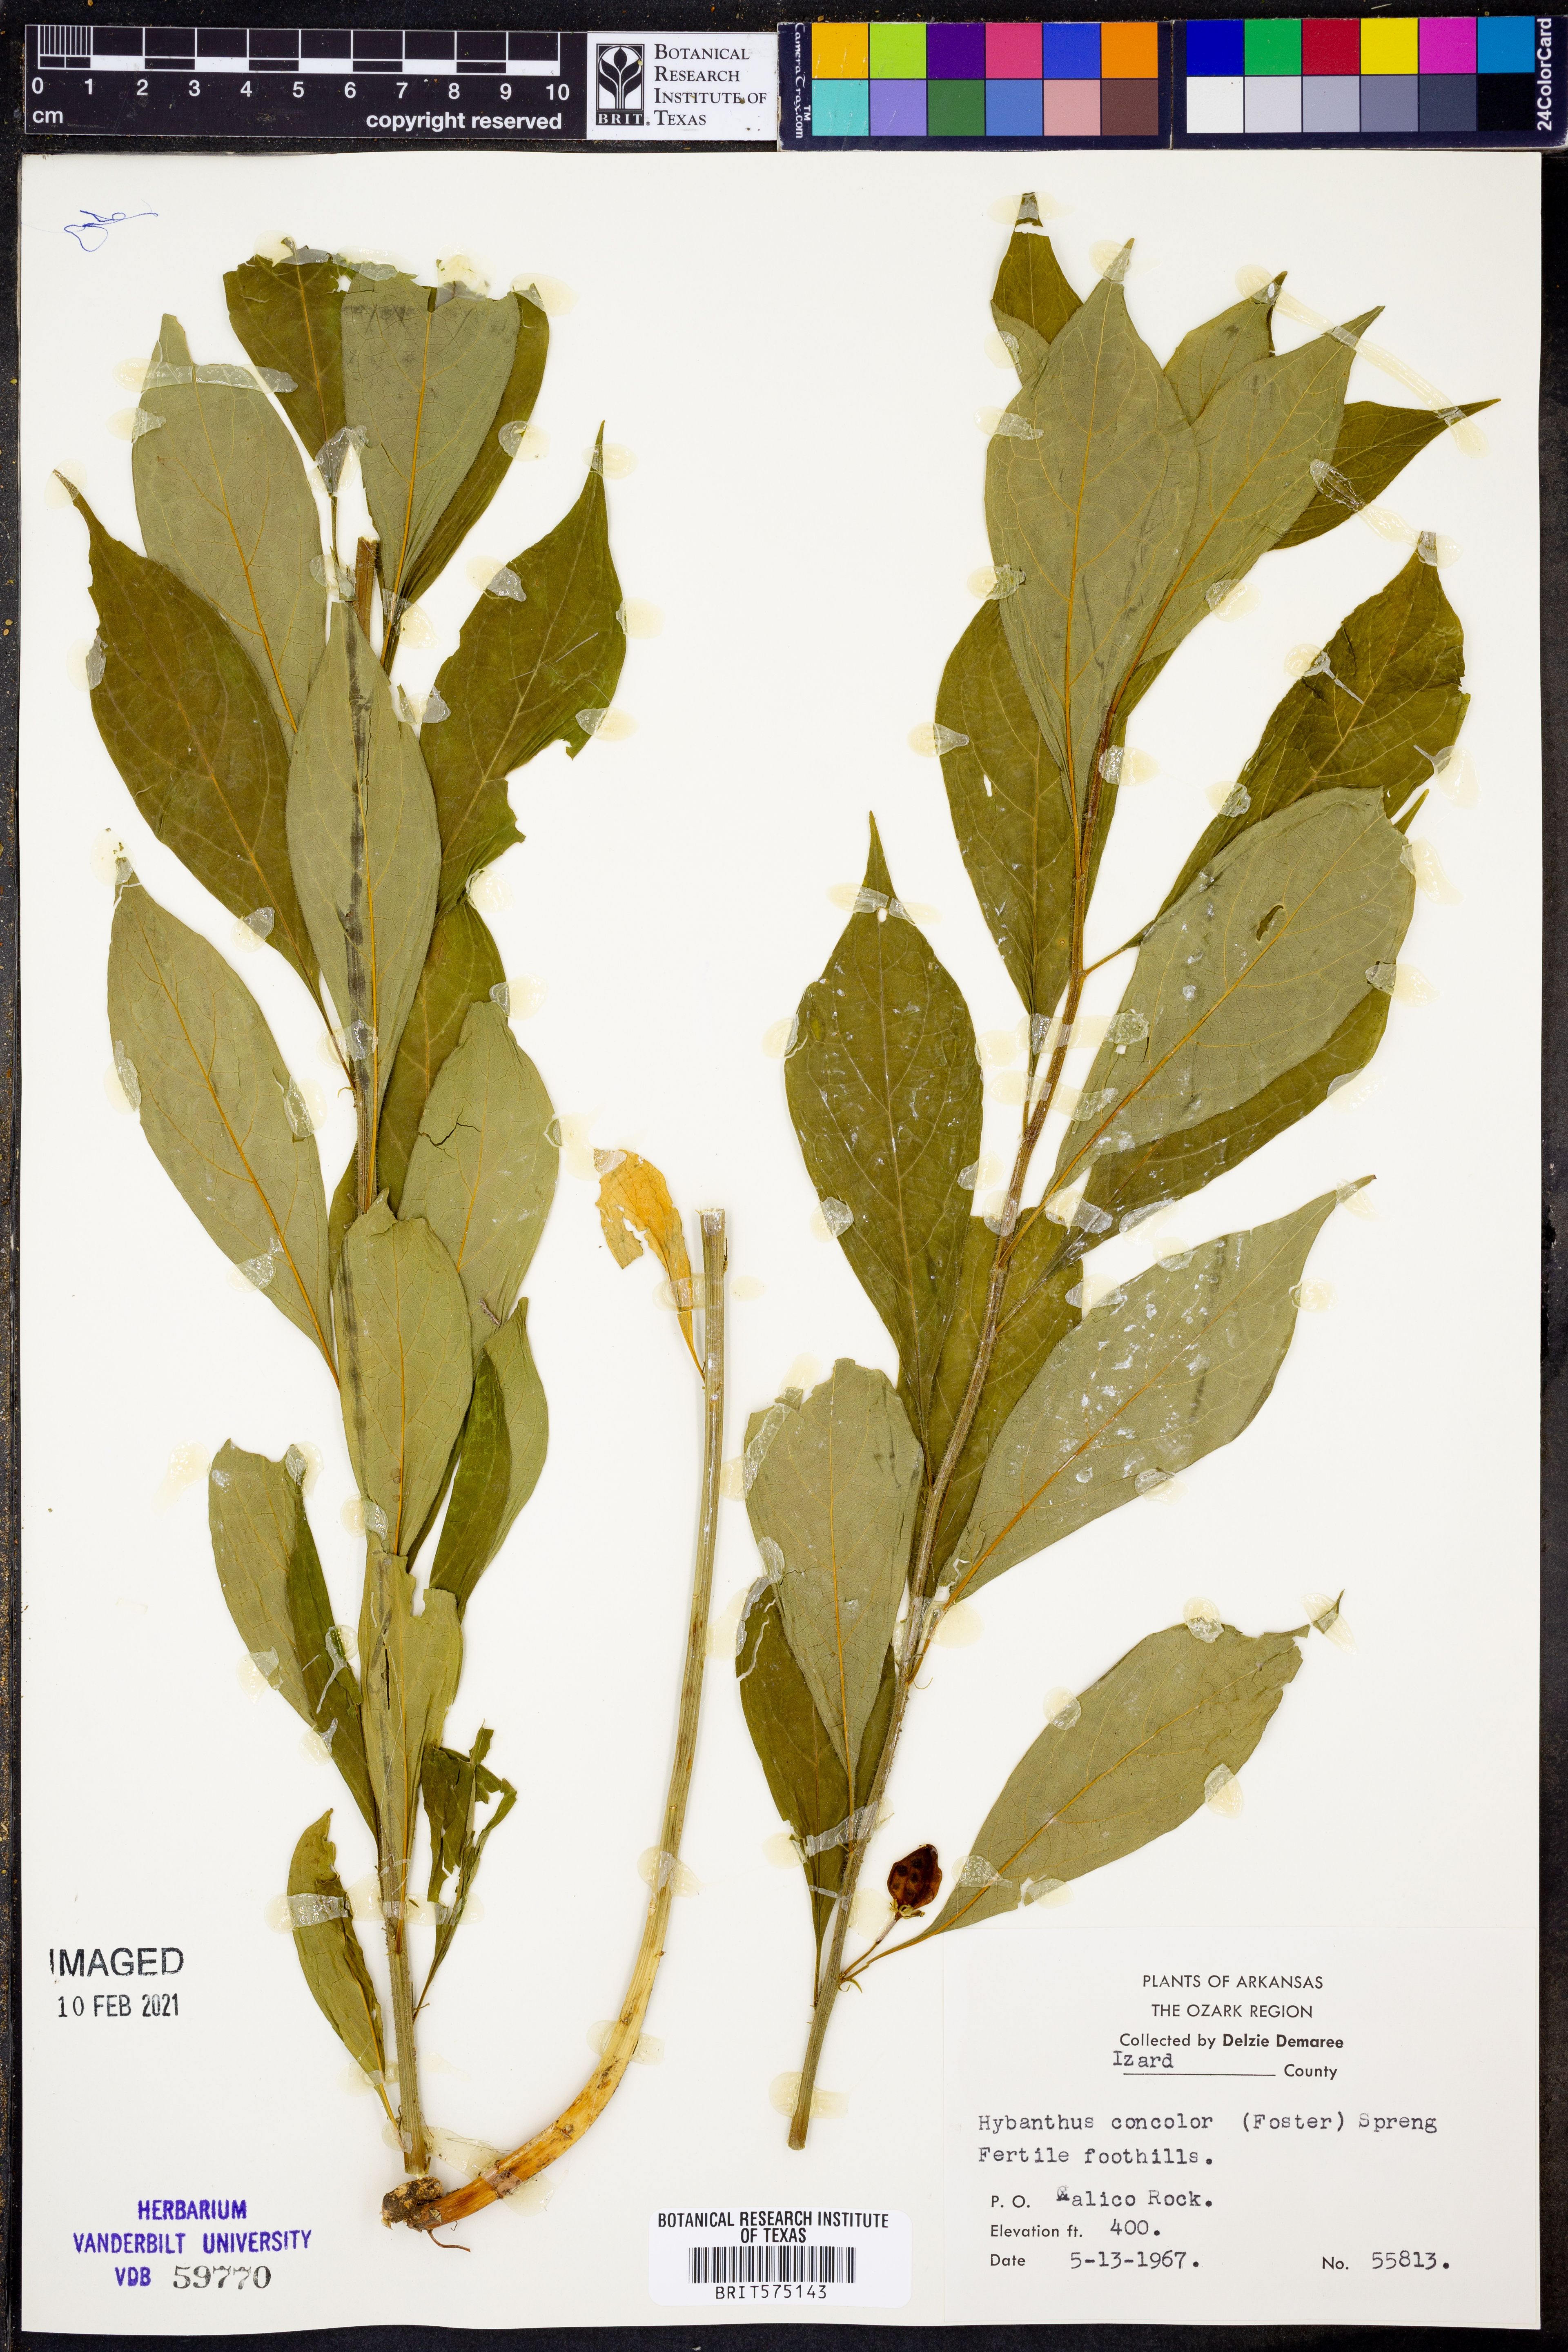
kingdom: Plantae
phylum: Tracheophyta
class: Magnoliopsida
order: Malpighiales
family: Violaceae
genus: Cubelium
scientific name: Cubelium concolor
